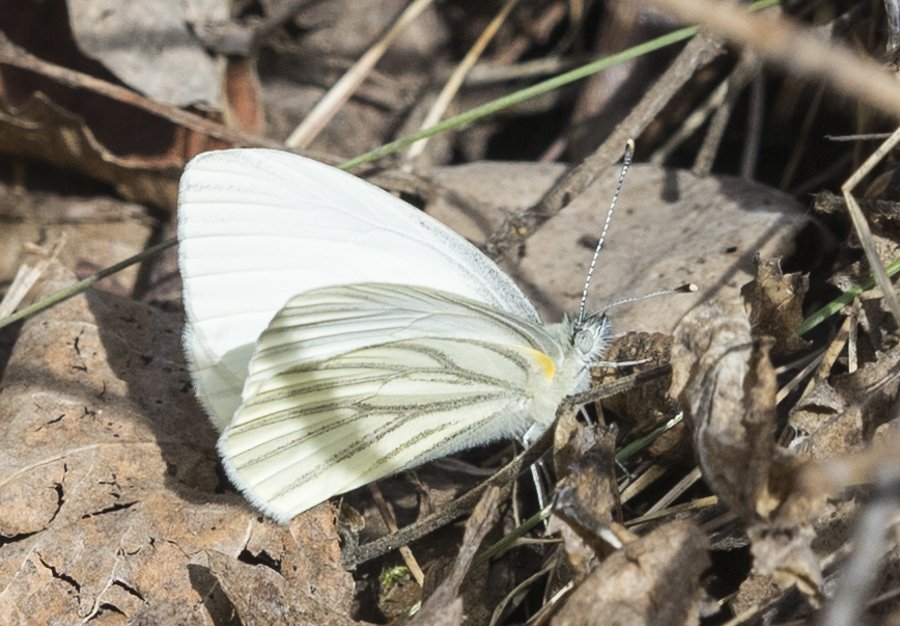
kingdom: Animalia
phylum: Arthropoda
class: Insecta
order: Lepidoptera
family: Pieridae
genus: Pieris
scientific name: Pieris oleracea
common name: Mustard White
